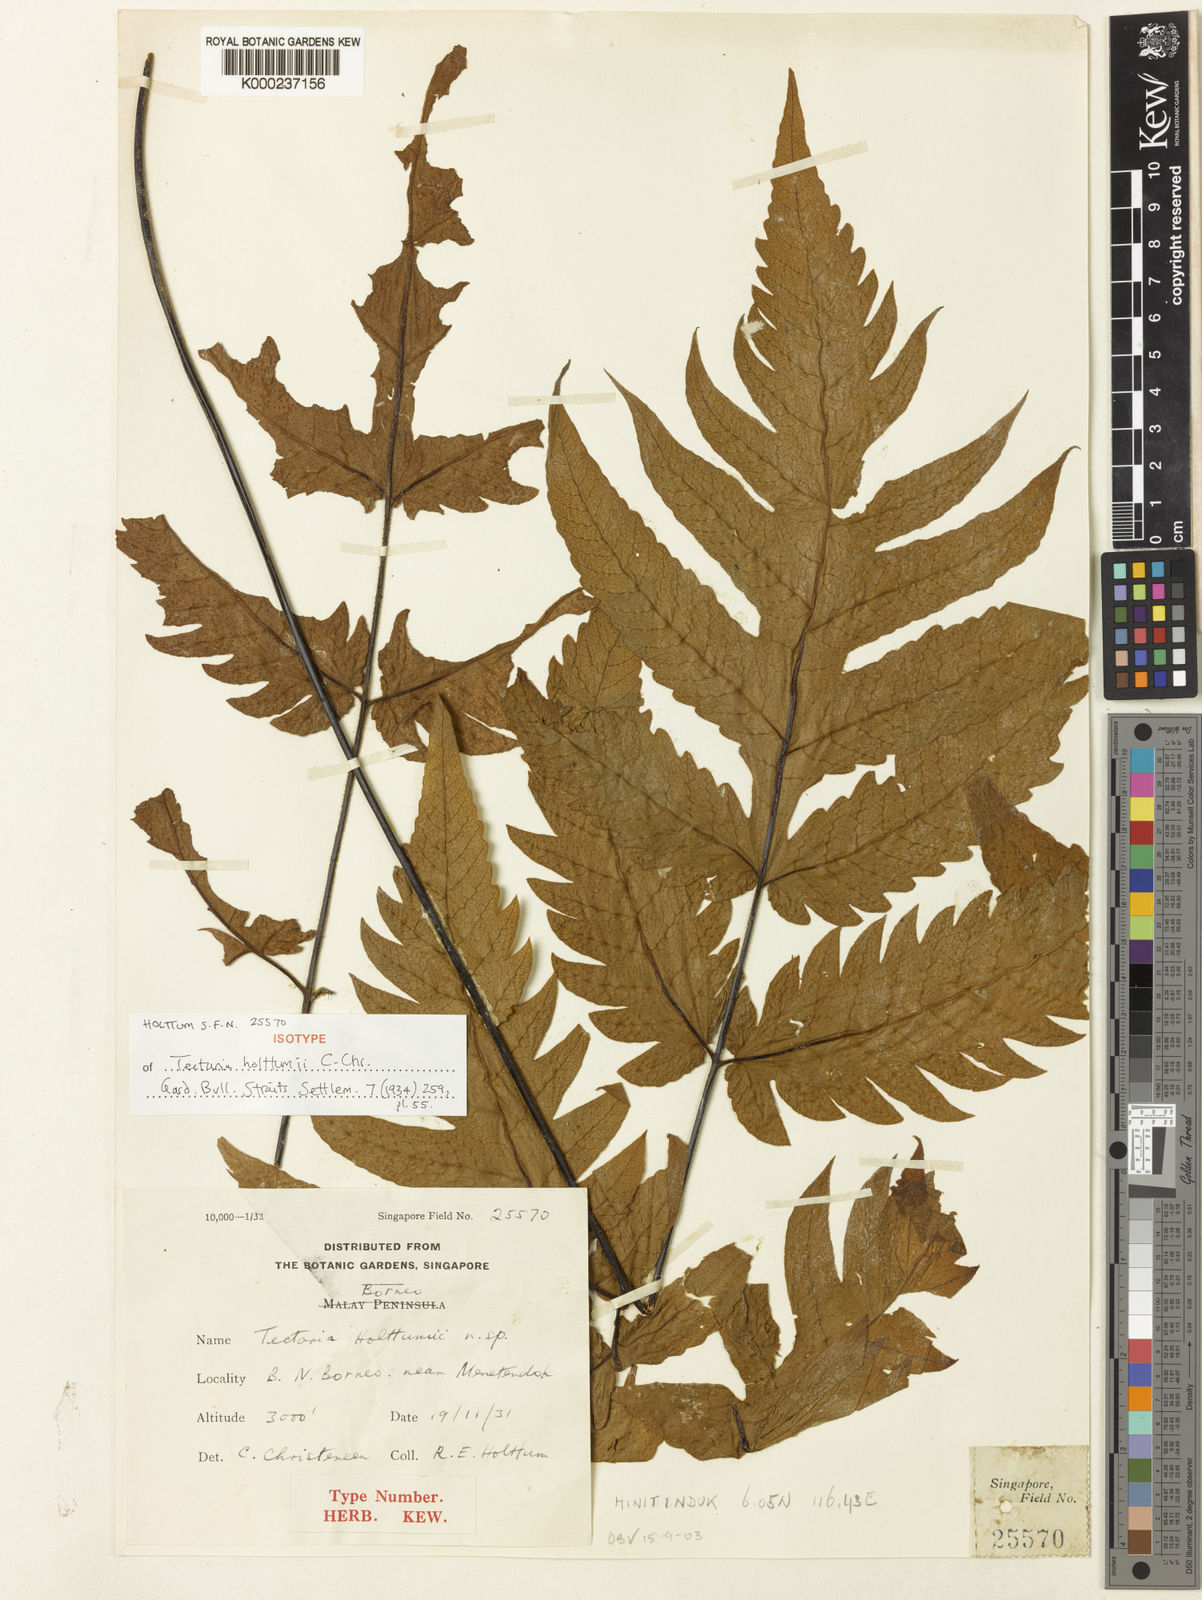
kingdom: Plantae
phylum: Tracheophyta
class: Polypodiopsida
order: Polypodiales
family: Tectariaceae
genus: Tectaria
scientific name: Tectaria holttumii
